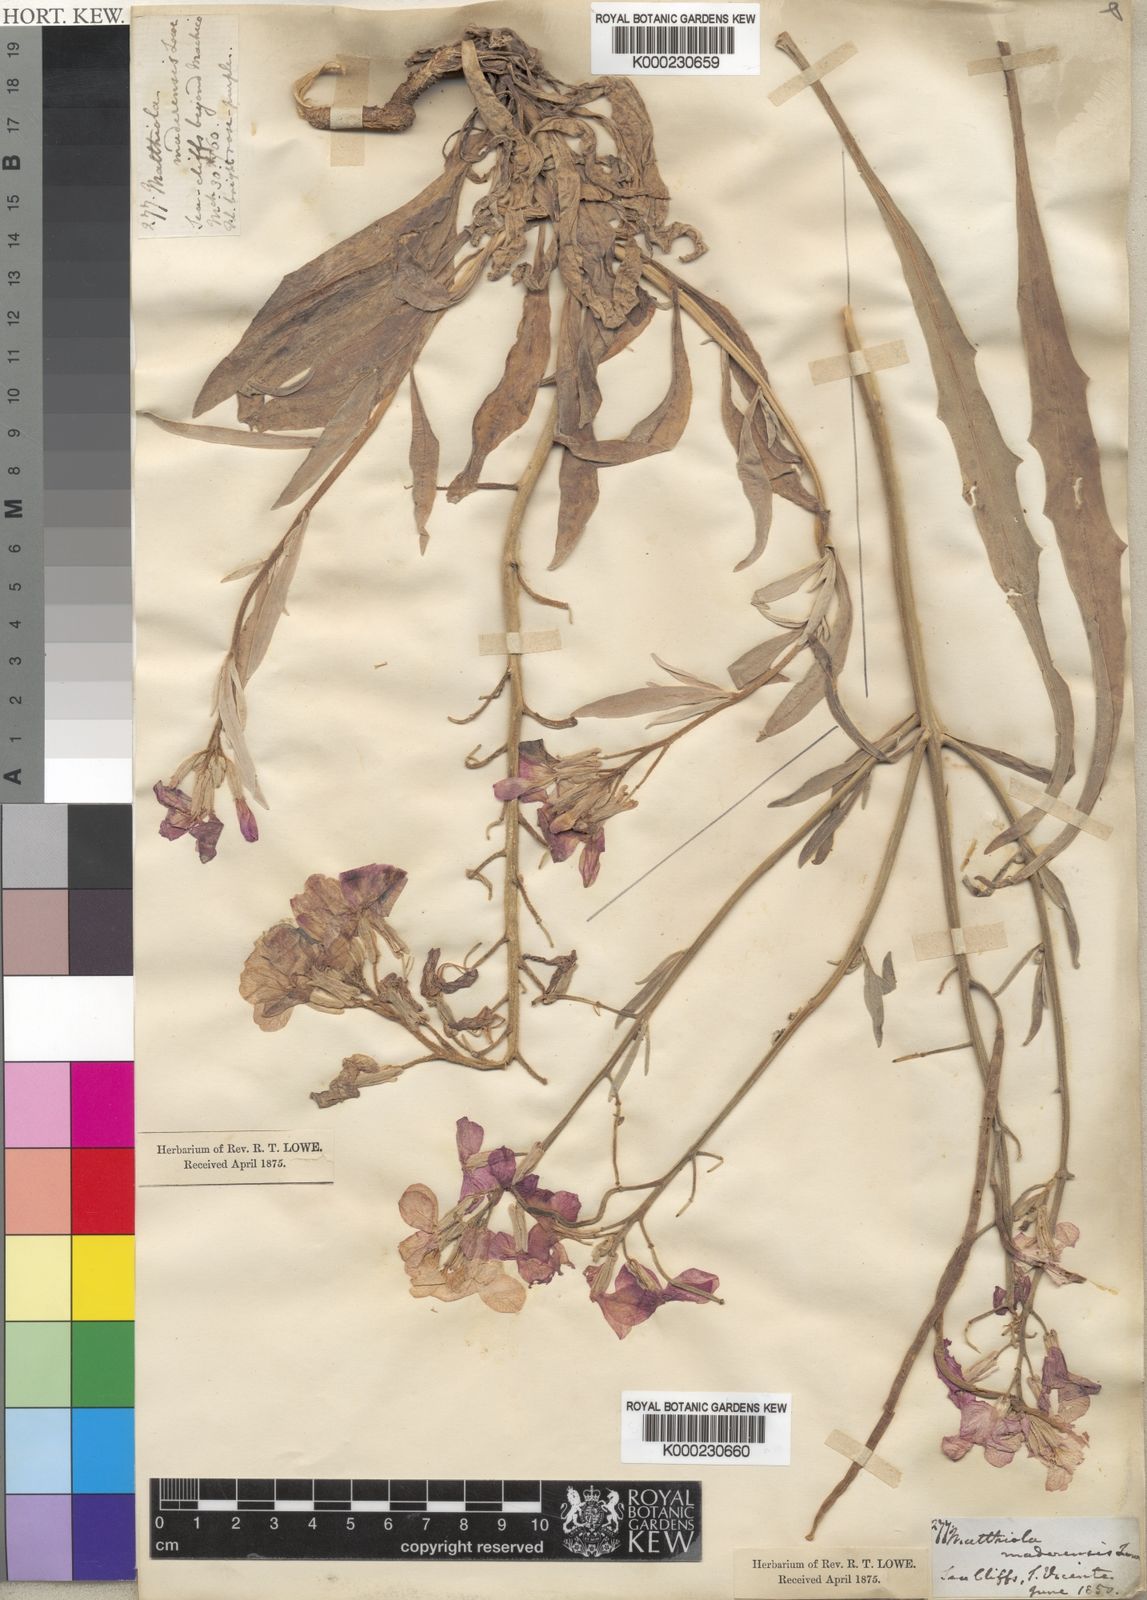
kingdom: Plantae
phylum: Tracheophyta
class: Magnoliopsida
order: Brassicales
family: Brassicaceae
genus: Matthiola
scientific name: Matthiola maderensis
